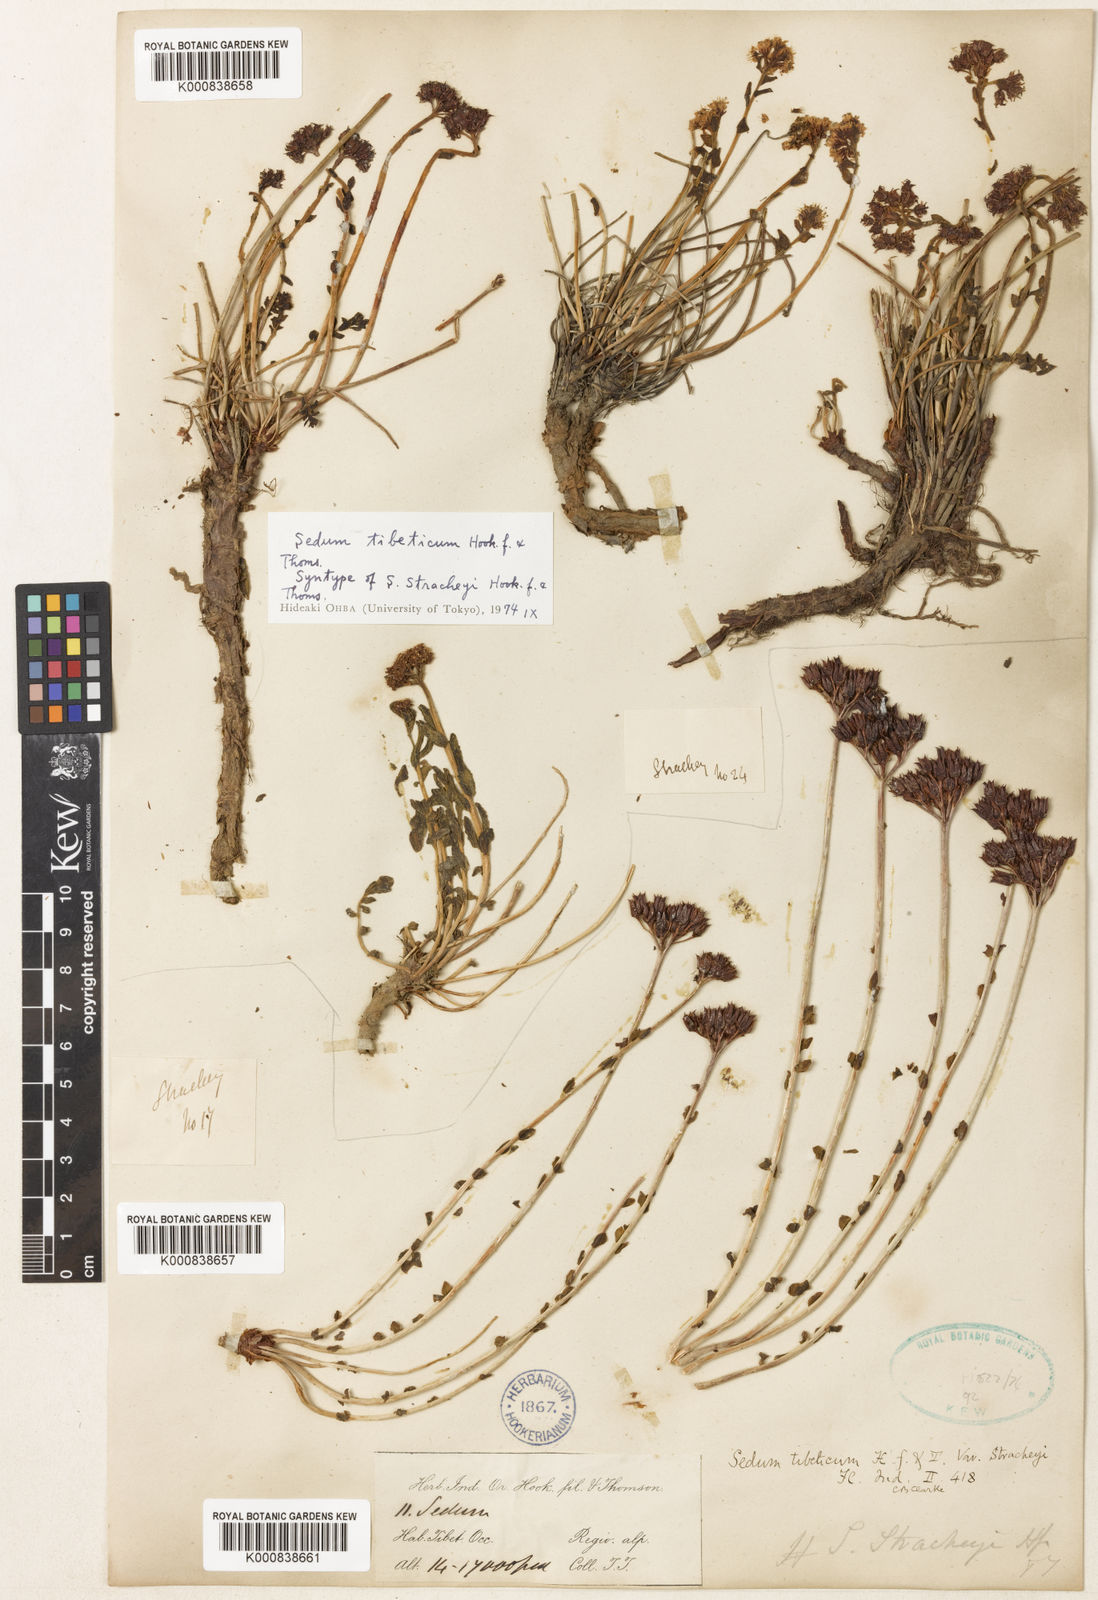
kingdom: Plantae
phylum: Tracheophyta
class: Magnoliopsida
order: Saxifragales
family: Crassulaceae
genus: Rhodiola
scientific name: Rhodiola tibetica
